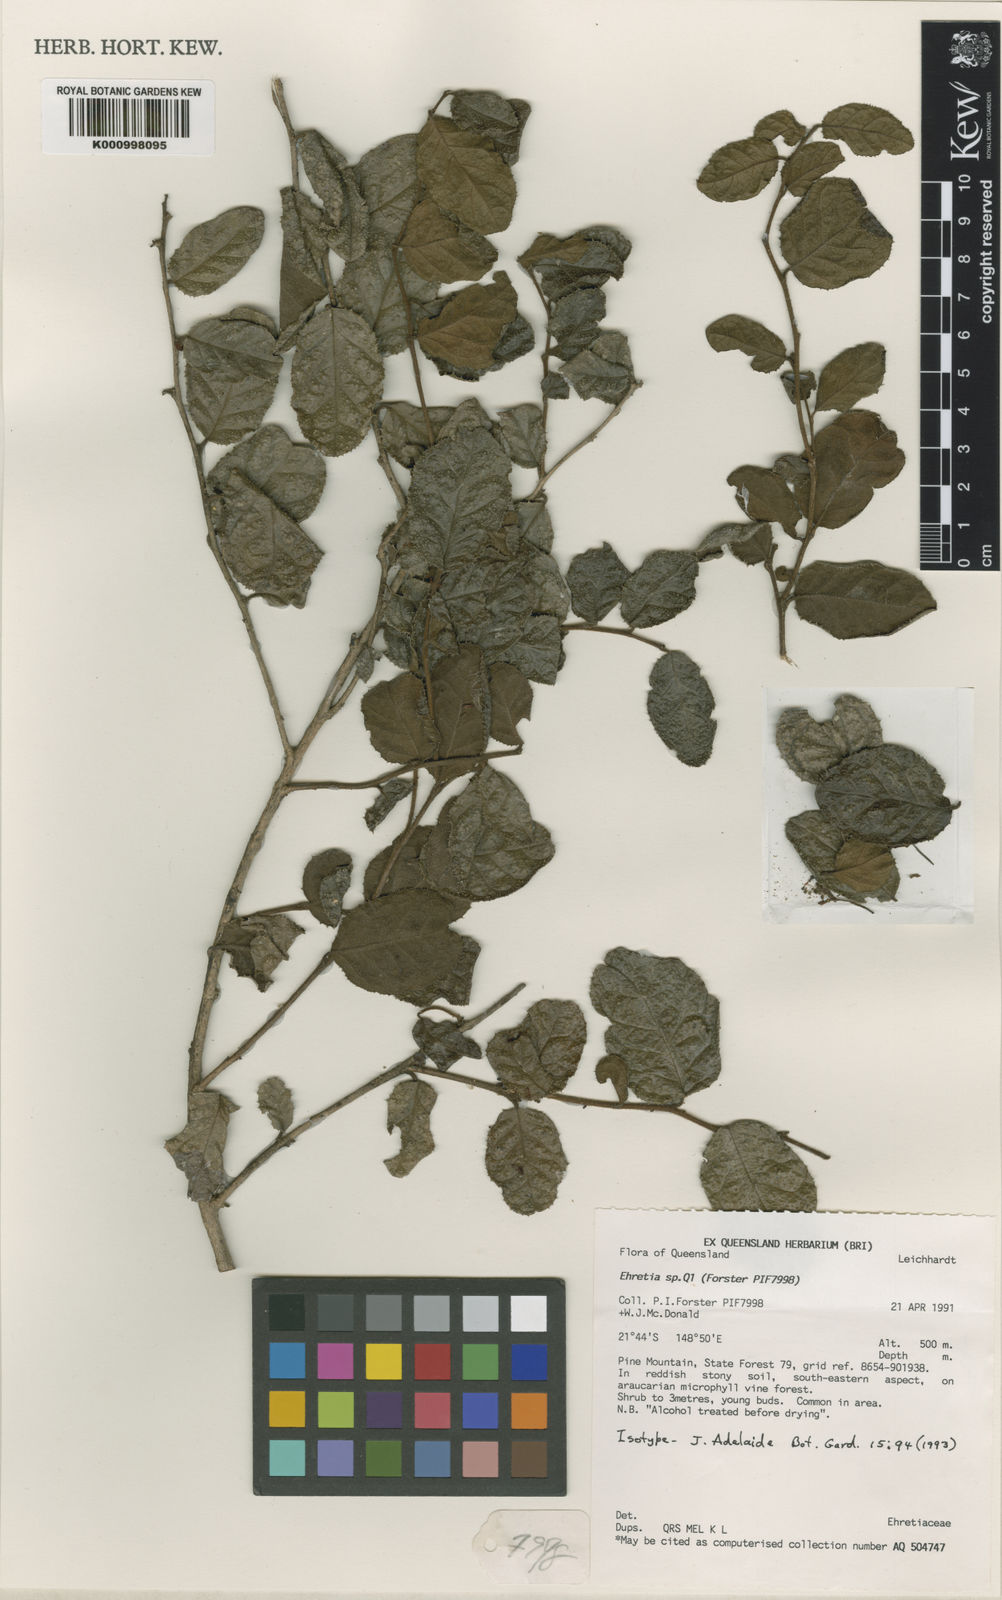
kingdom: Plantae
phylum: Tracheophyta
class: Magnoliopsida
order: Boraginales
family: Ehretiaceae
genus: Ehretia
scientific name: Ehretia grahamii
